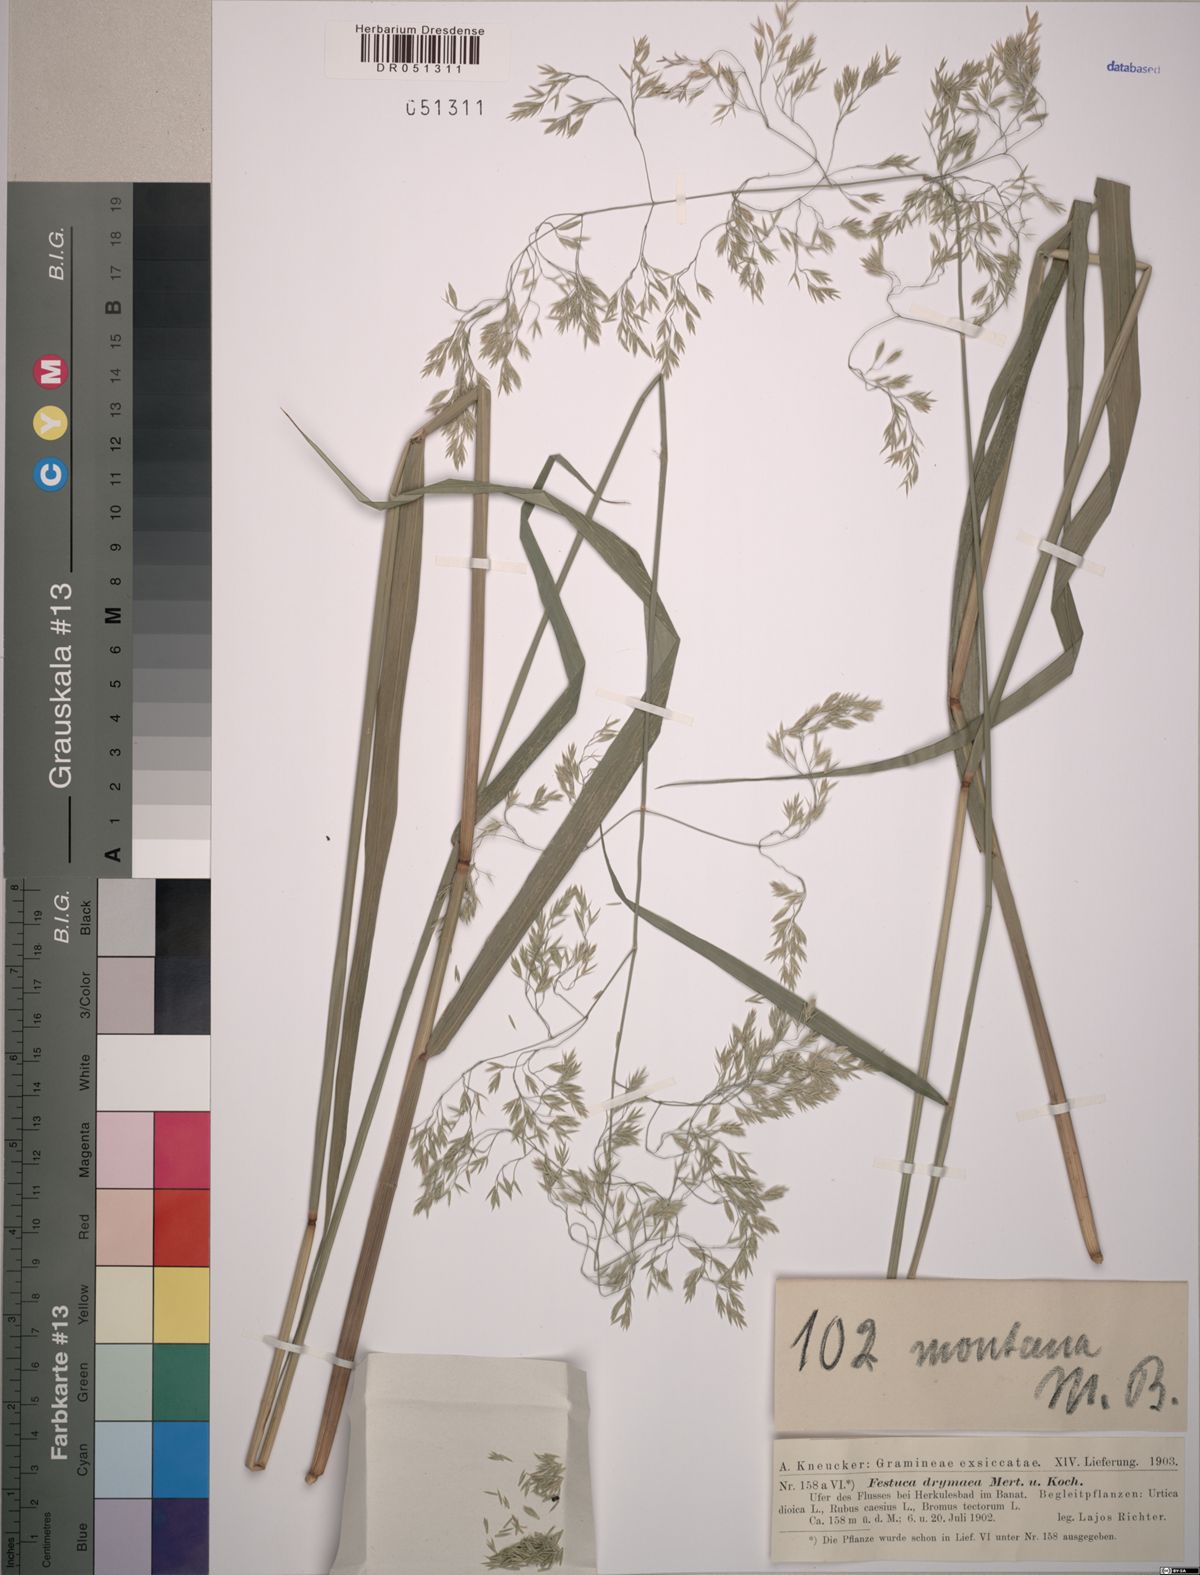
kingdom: Plantae
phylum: Tracheophyta
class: Liliopsida
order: Poales
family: Poaceae
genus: Festuca
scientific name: Festuca drymeja
